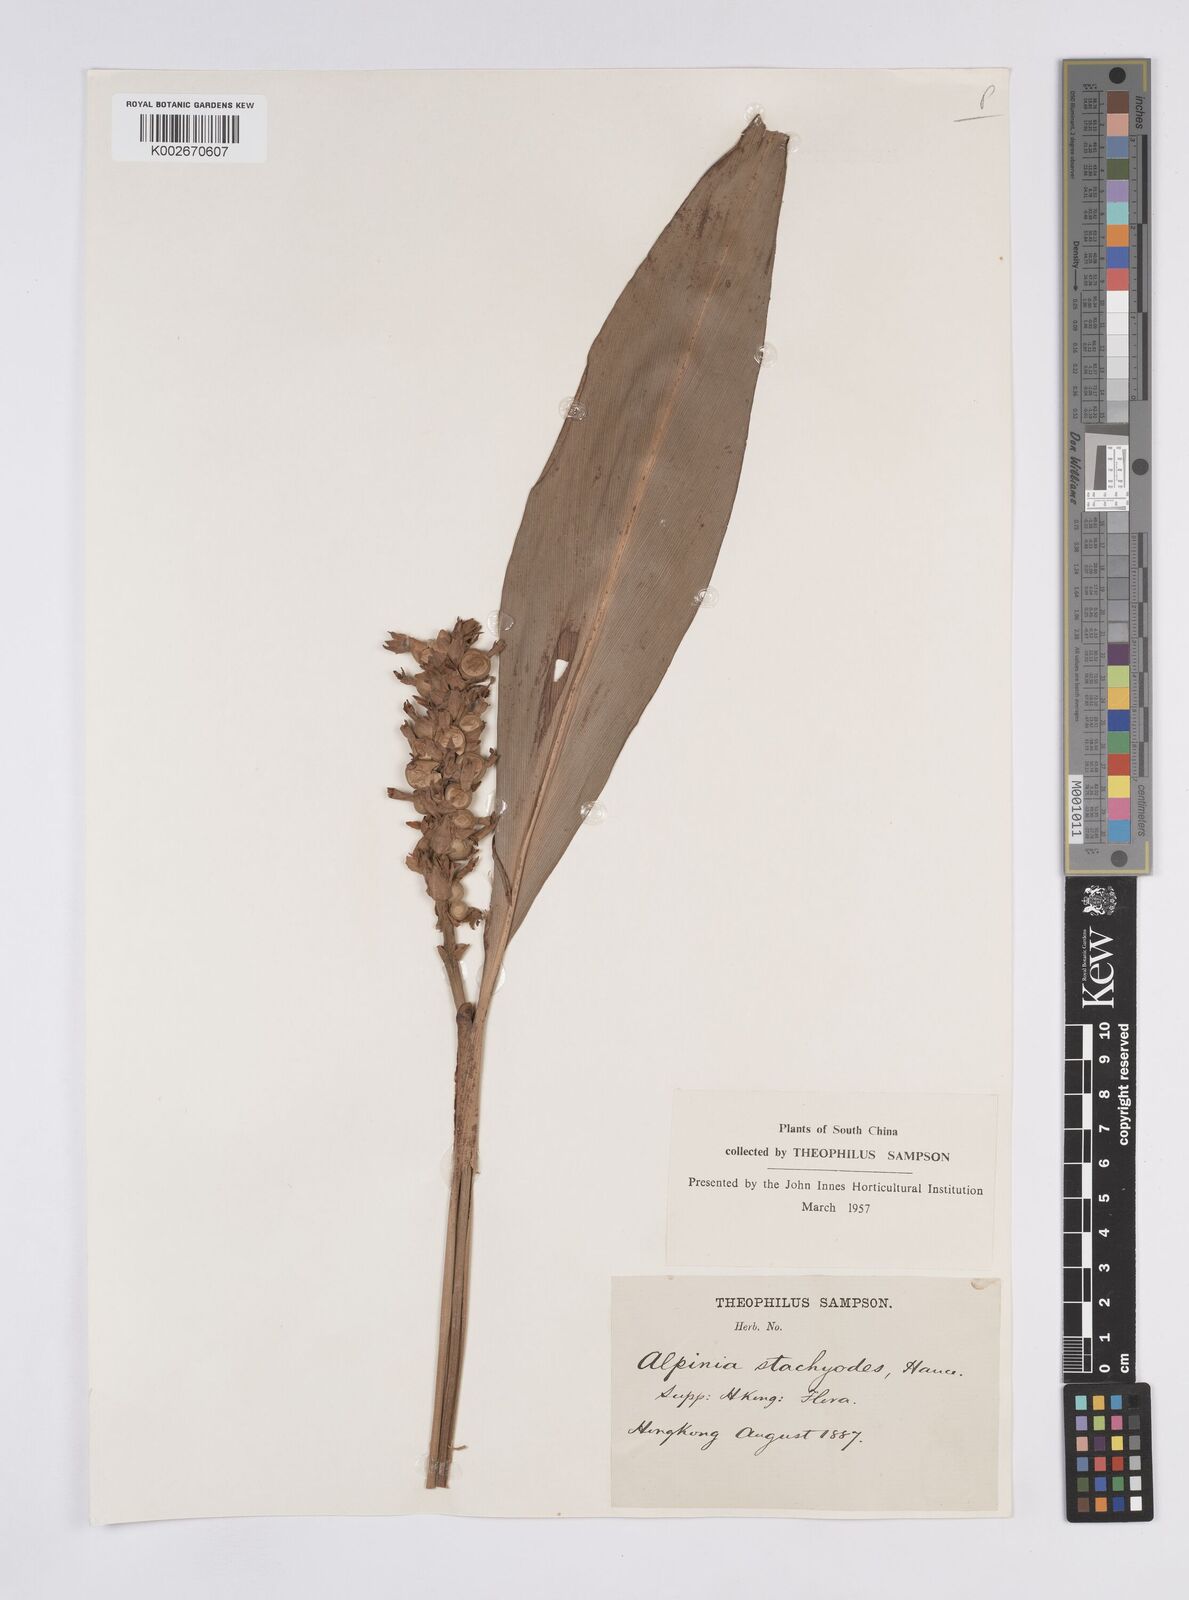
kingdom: Plantae
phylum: Tracheophyta
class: Liliopsida
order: Zingiberales
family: Zingiberaceae
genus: Alpinia
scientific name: Alpinia stachyodes
